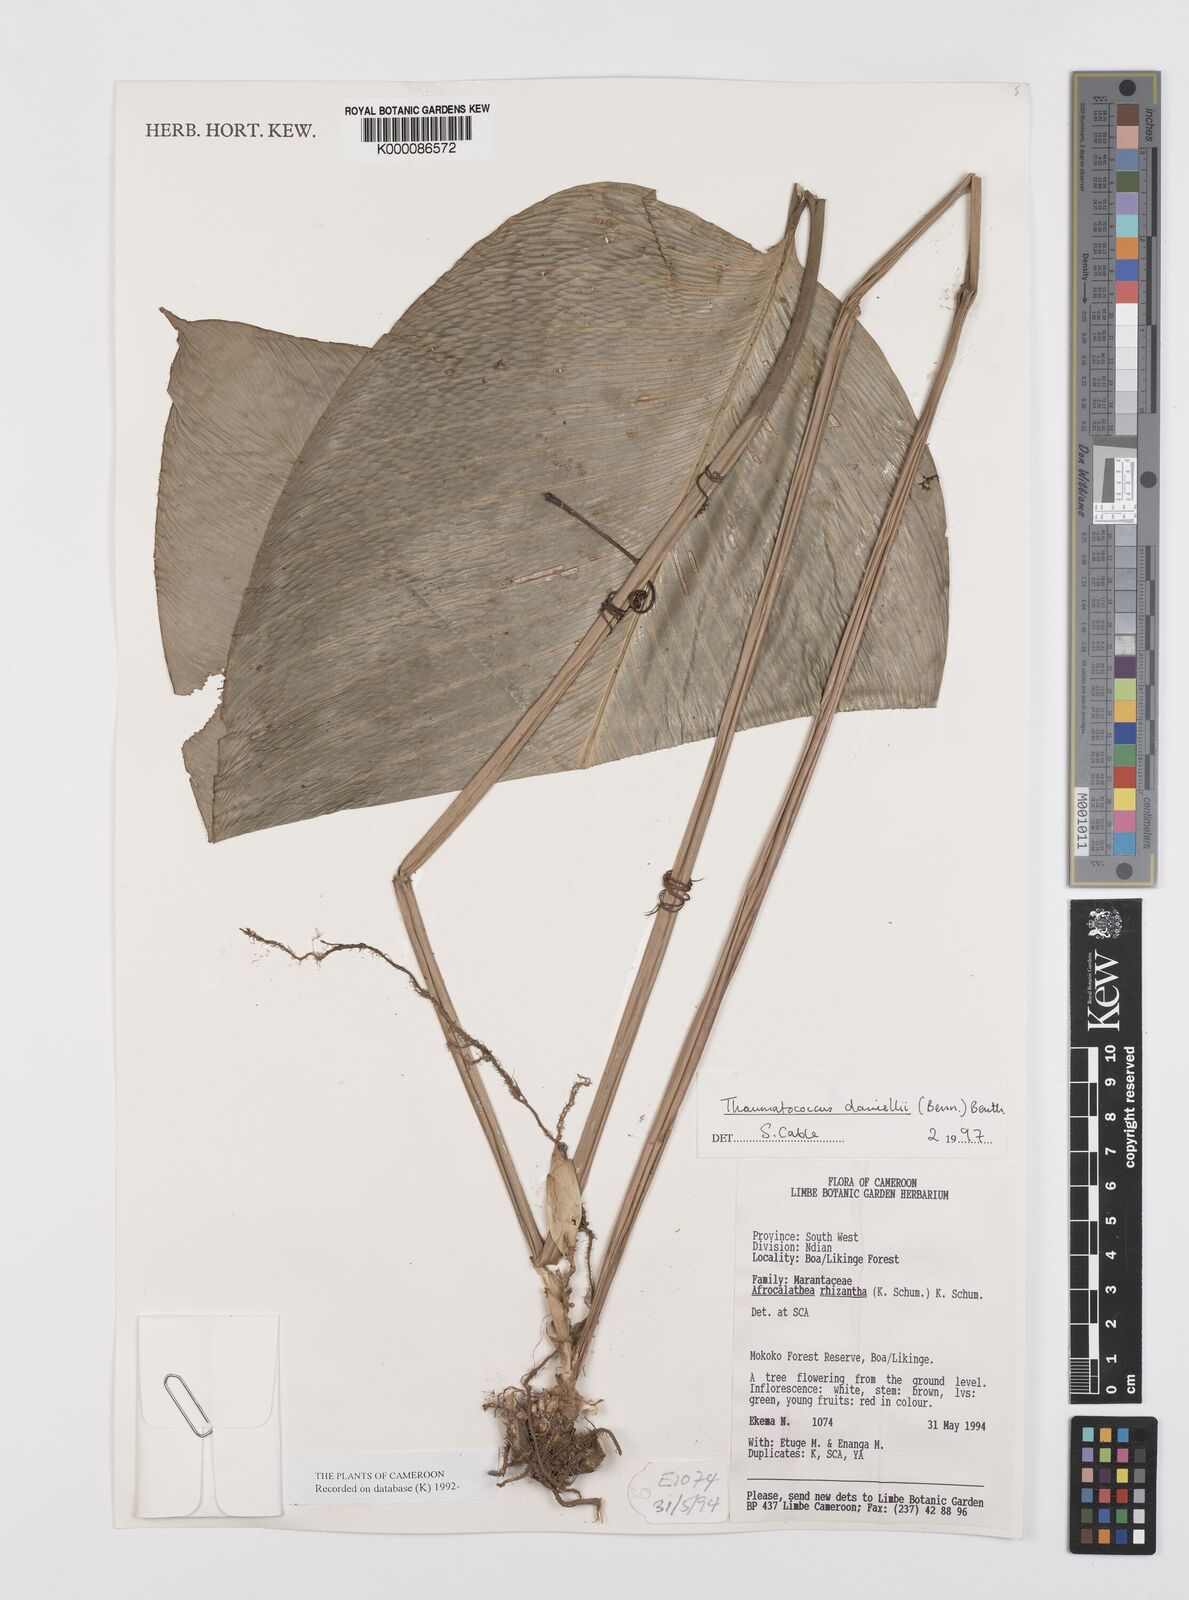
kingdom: Plantae
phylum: Tracheophyta
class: Liliopsida
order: Zingiberales
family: Marantaceae
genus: Thaumatococcus
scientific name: Thaumatococcus
